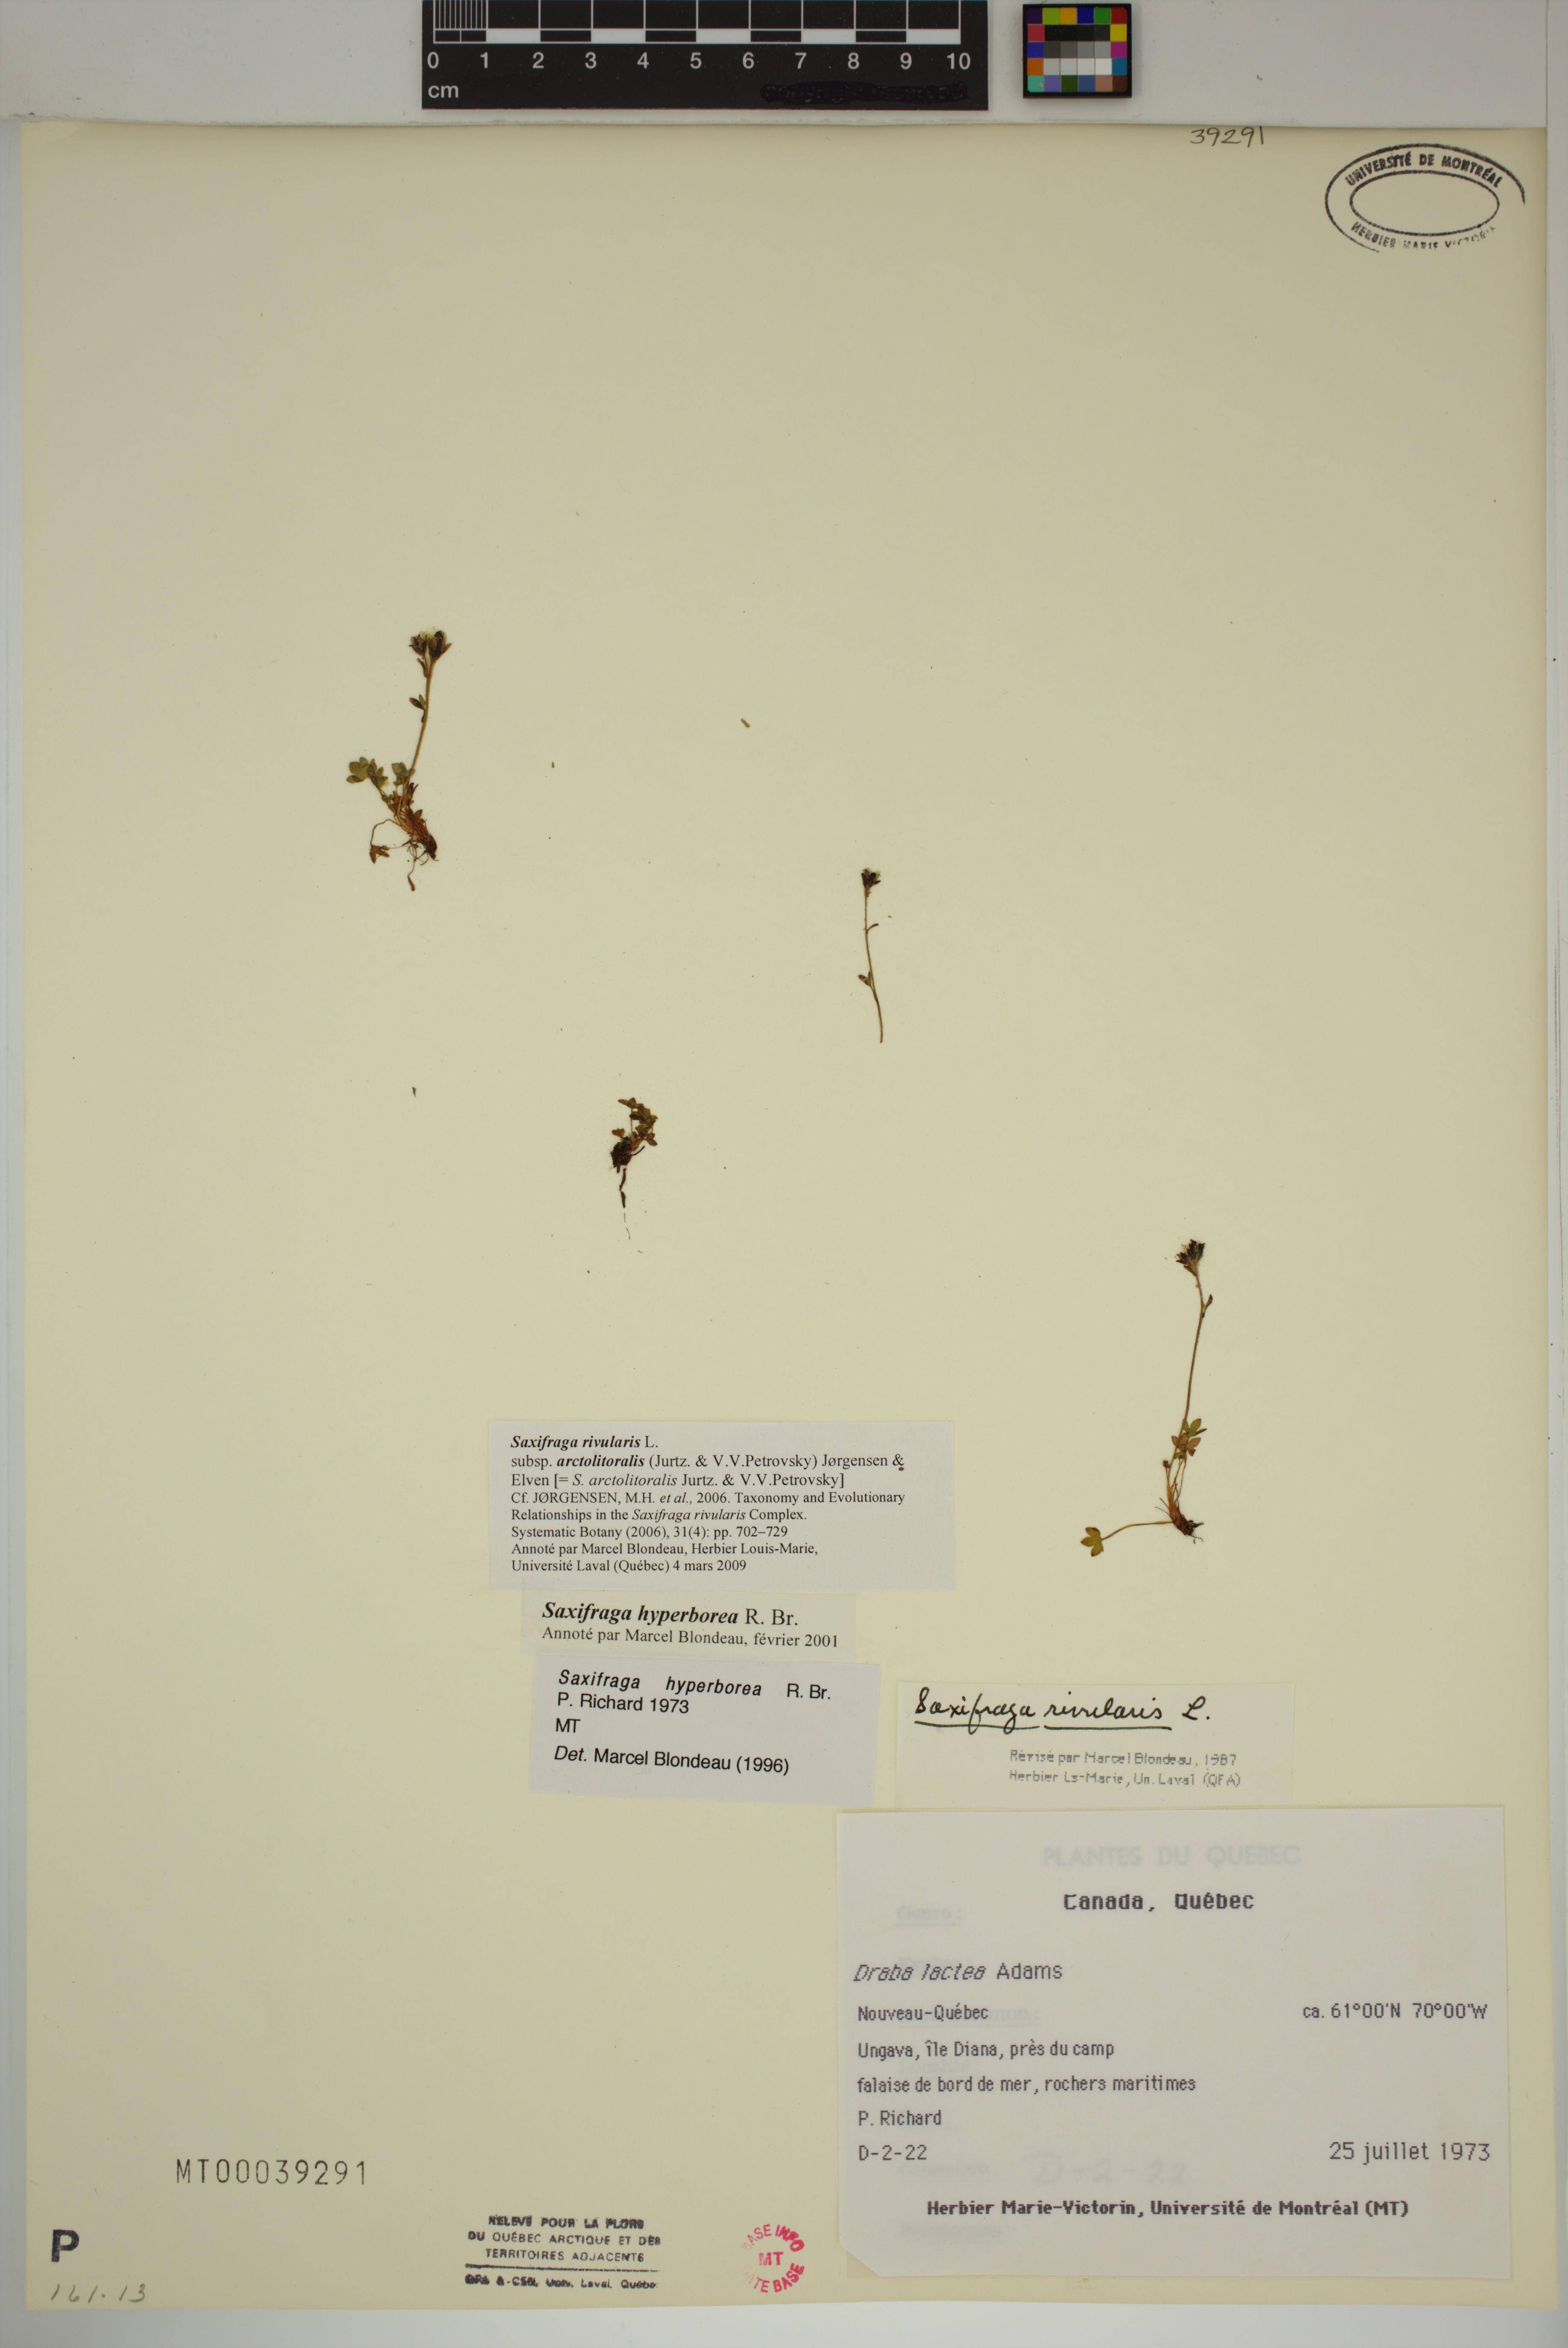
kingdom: Plantae
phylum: Tracheophyta
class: Magnoliopsida
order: Saxifragales
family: Saxifragaceae
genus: Saxifraga
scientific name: Saxifraga rivularis
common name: Highland saxifrage
